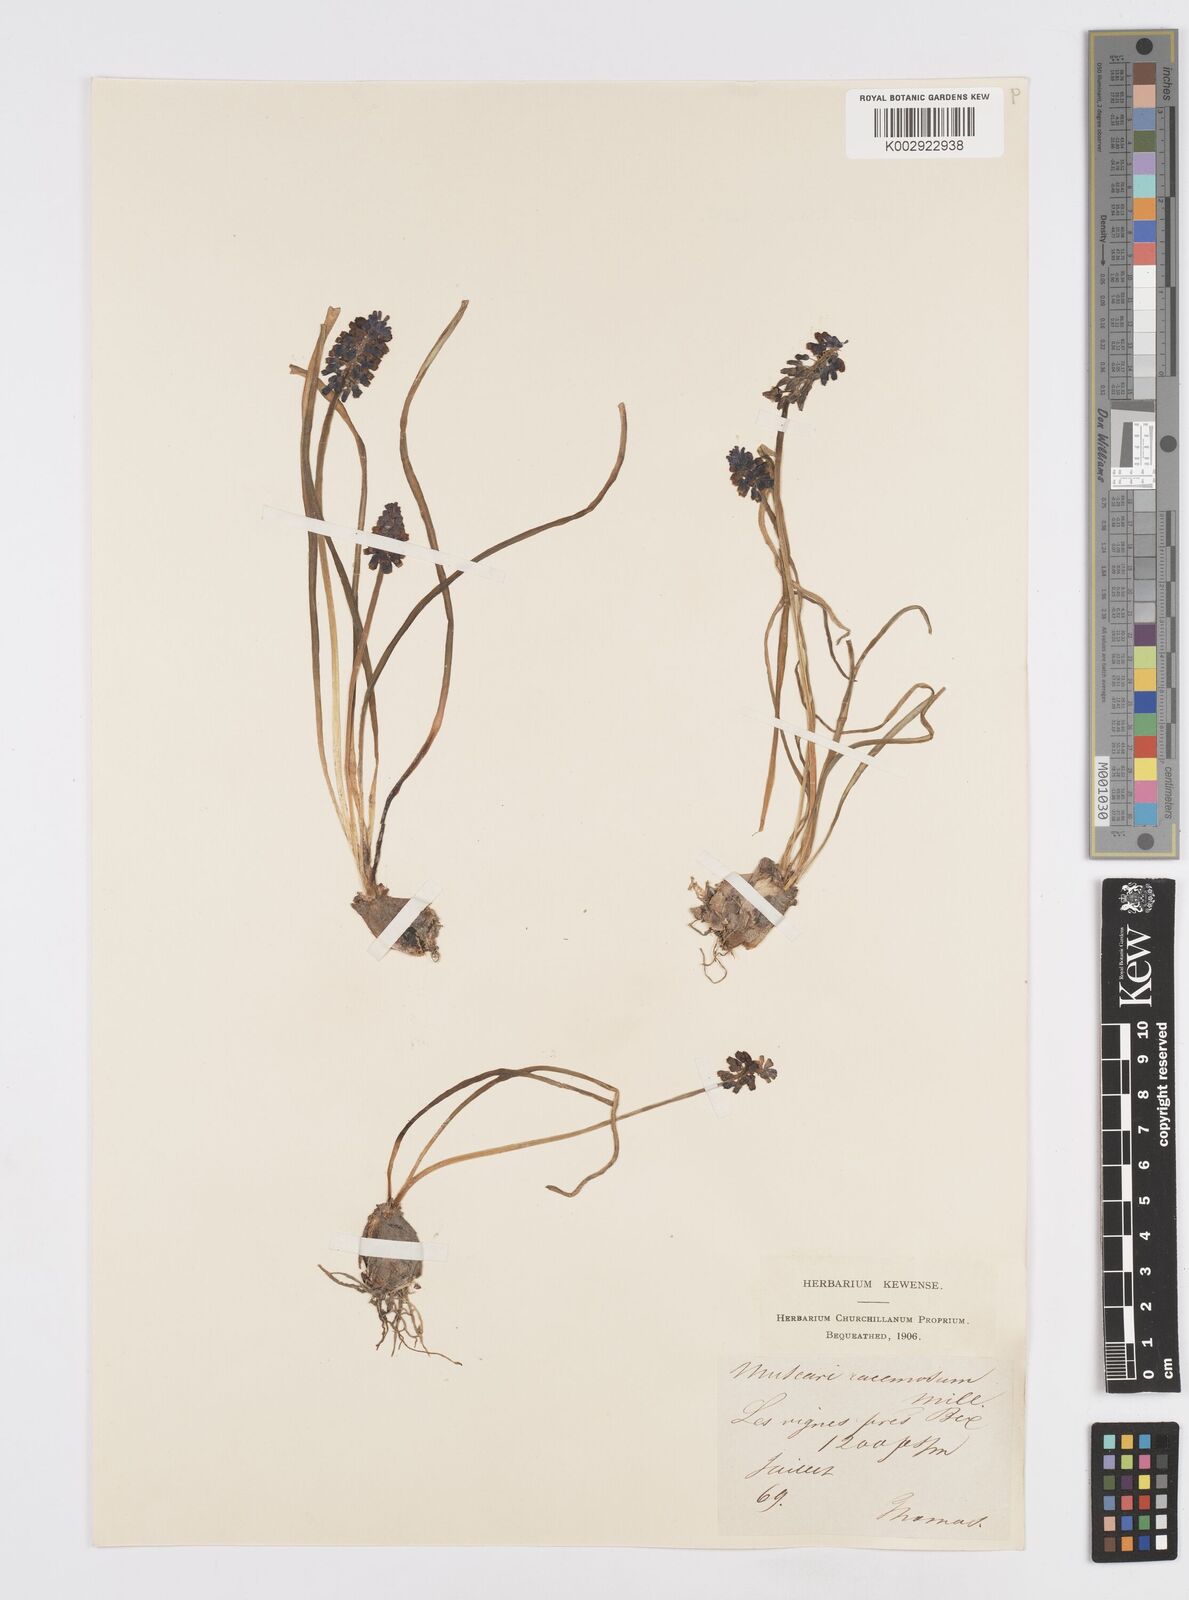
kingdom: Plantae
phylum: Tracheophyta
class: Liliopsida
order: Asparagales
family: Asparagaceae
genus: Muscarimia
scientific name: Muscarimia muscari
